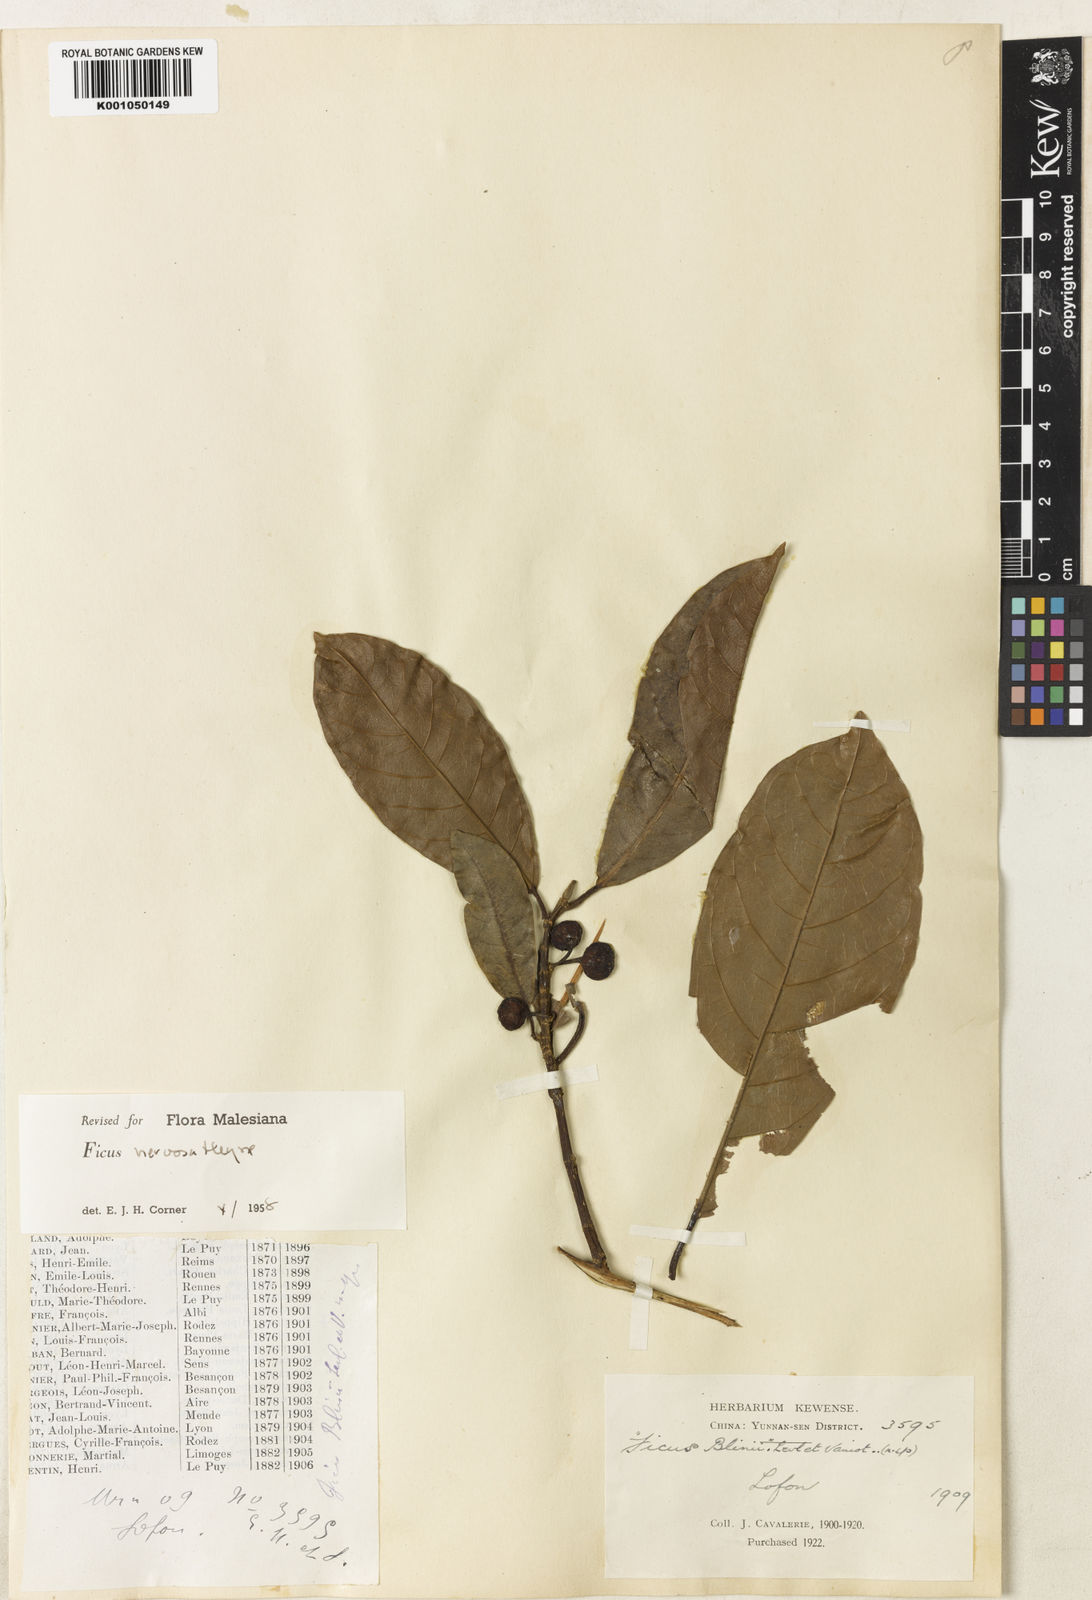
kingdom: Plantae
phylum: Tracheophyta
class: Magnoliopsida
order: Rosales
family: Moraceae
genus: Ficus
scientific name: Ficus nervosa
